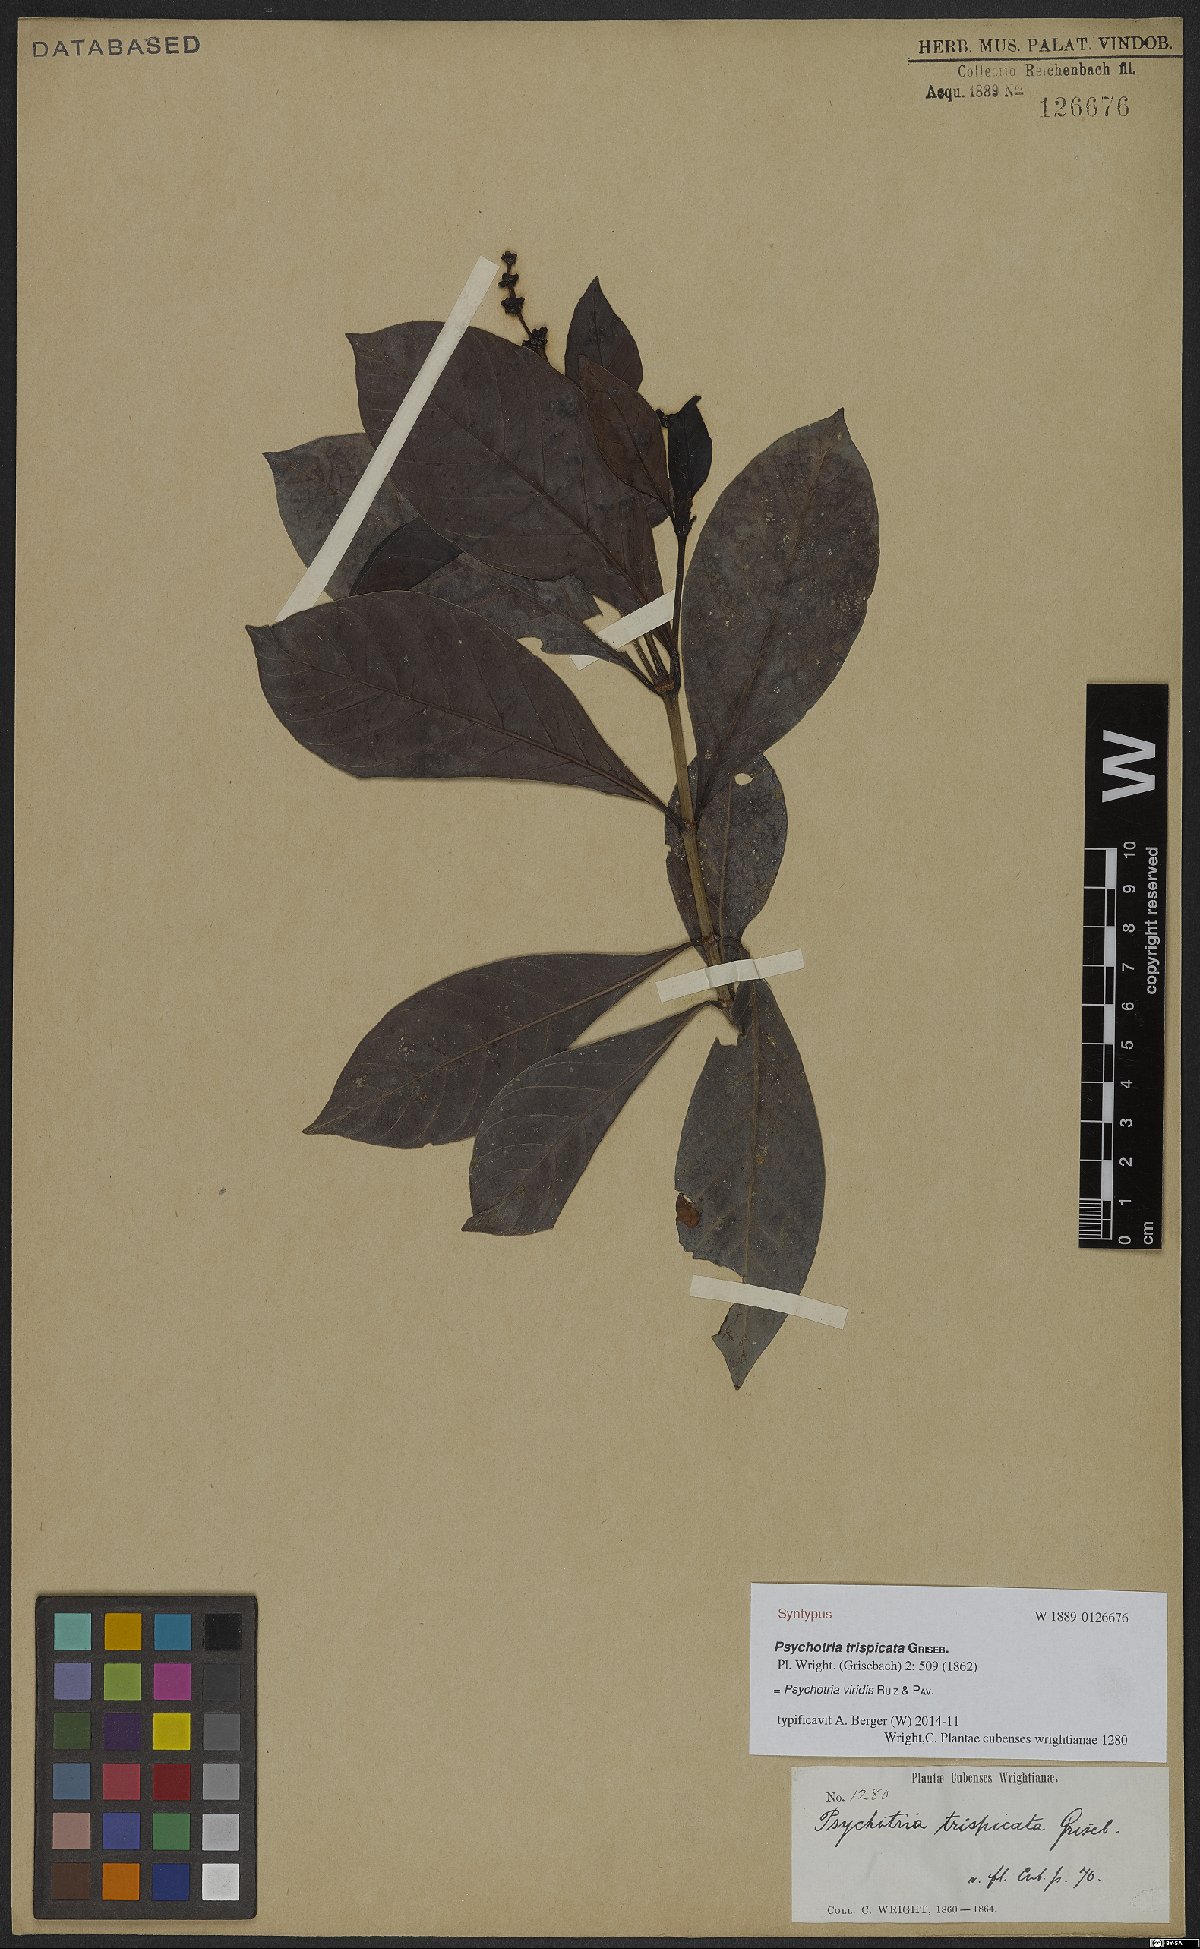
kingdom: Plantae
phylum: Tracheophyta
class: Magnoliopsida
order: Gentianales
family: Rubiaceae
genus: Psychotria
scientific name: Psychotria viridis
